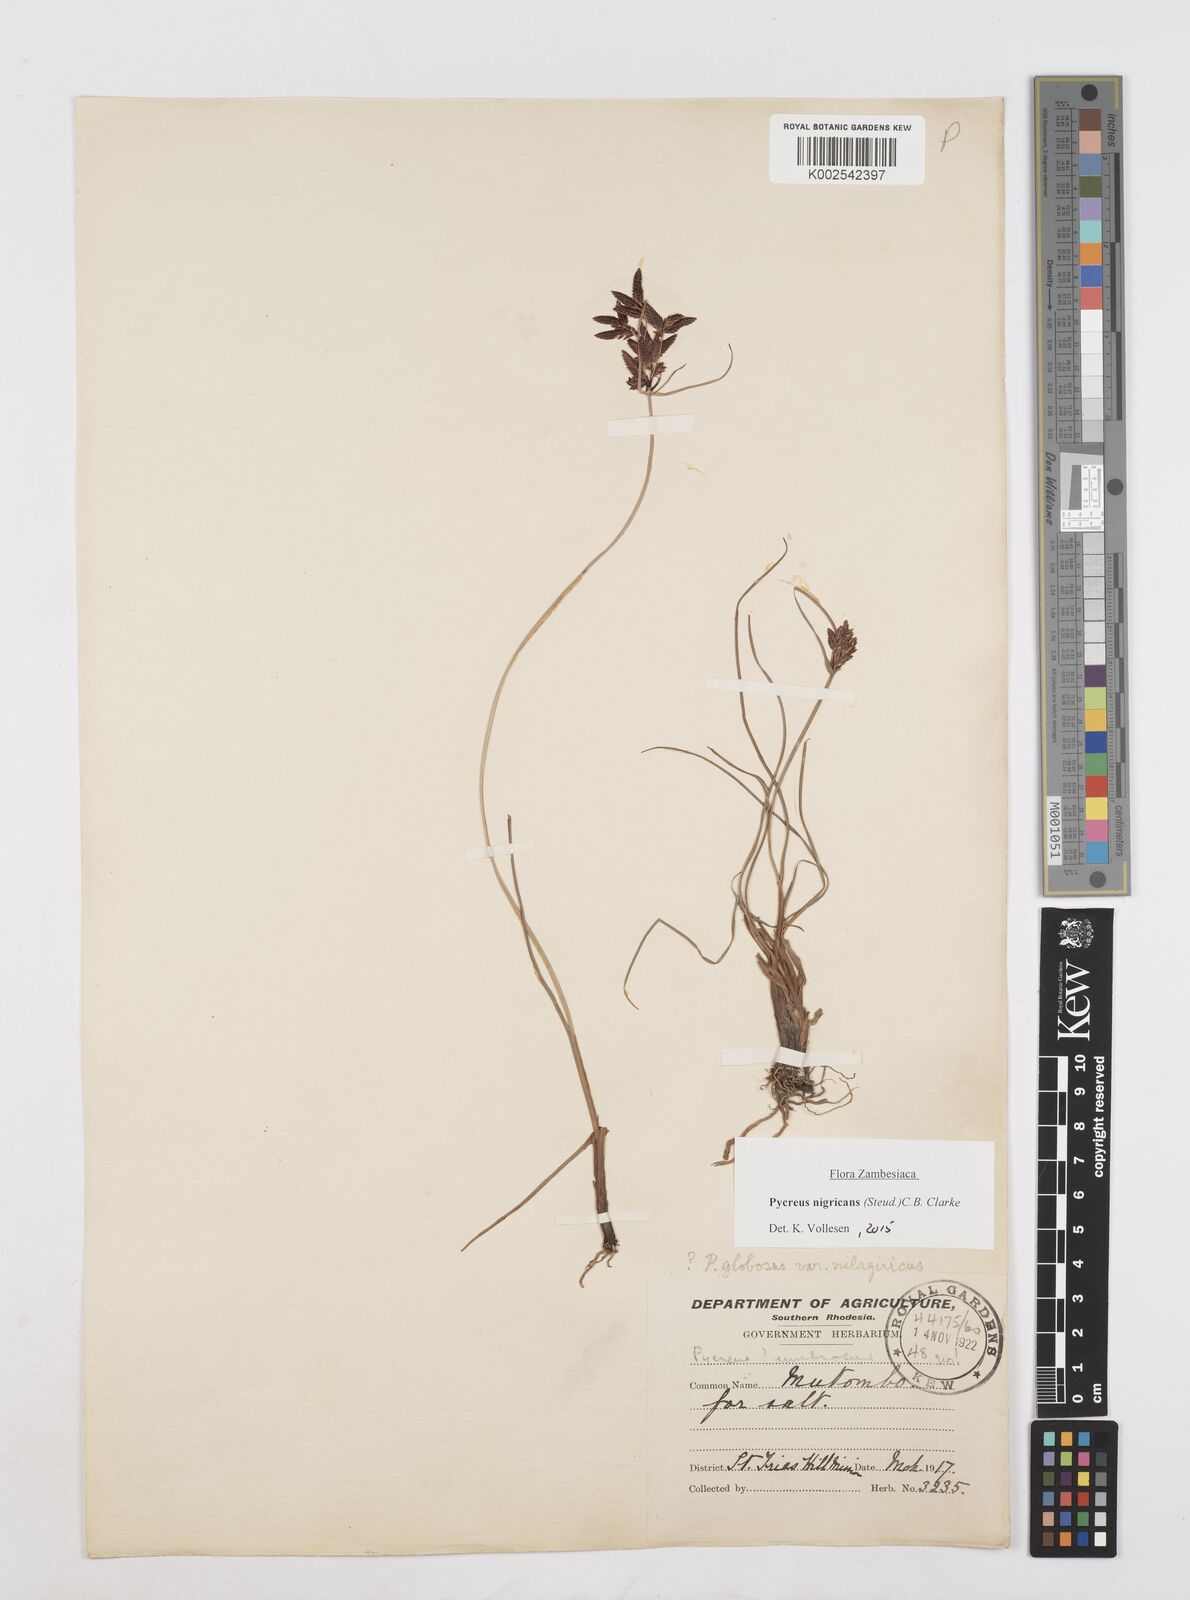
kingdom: Plantae
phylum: Tracheophyta
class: Liliopsida
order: Poales
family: Cyperaceae
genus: Cyperus
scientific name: Cyperus nigricans
